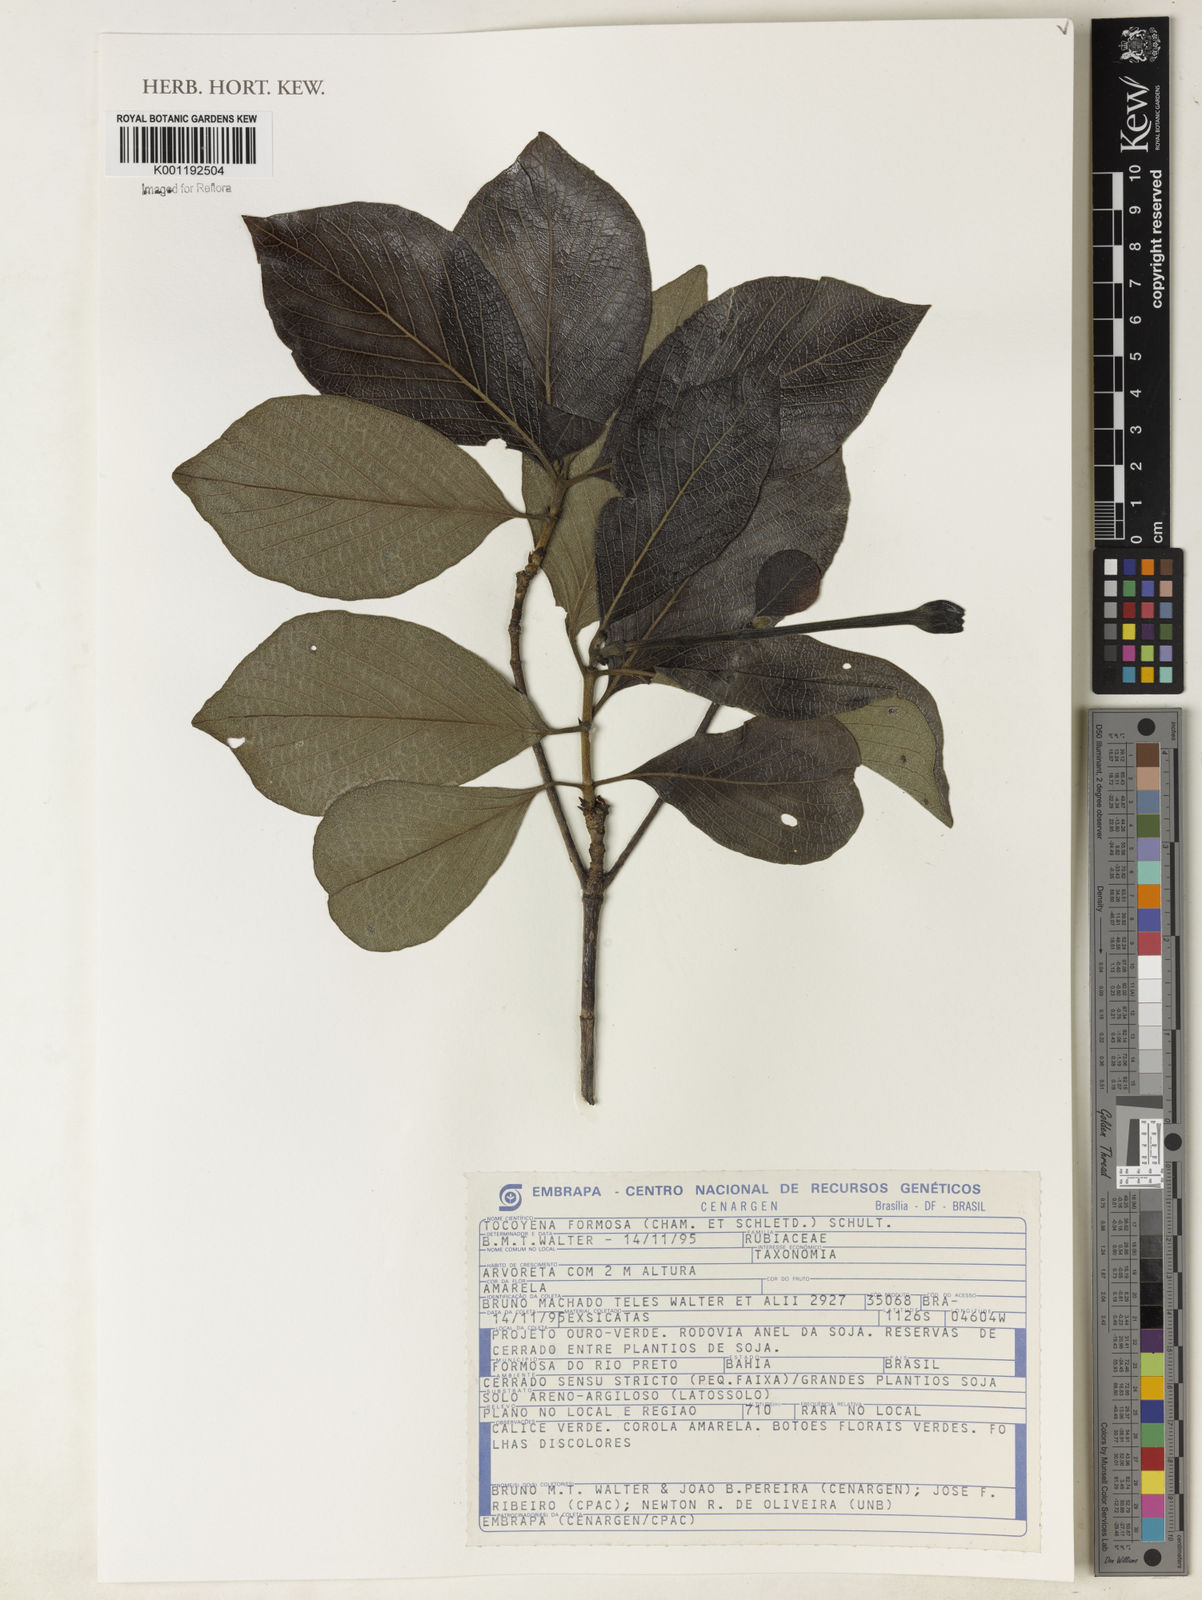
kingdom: Plantae
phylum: Tracheophyta
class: Magnoliopsida
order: Gentianales
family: Rubiaceae
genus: Tocoyena
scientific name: Tocoyena formosa
